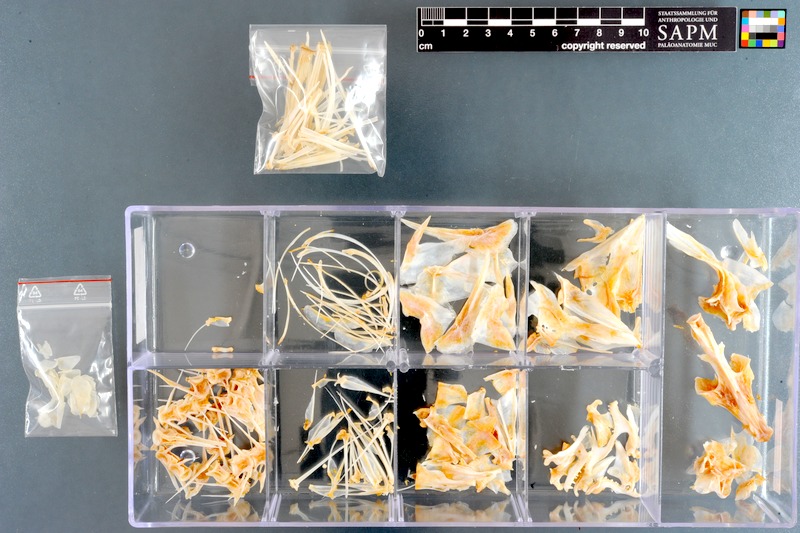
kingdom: Animalia
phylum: Chordata
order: Perciformes
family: Mullidae
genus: Parupeneus
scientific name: Parupeneus rubescens
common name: Rosy goatfish
